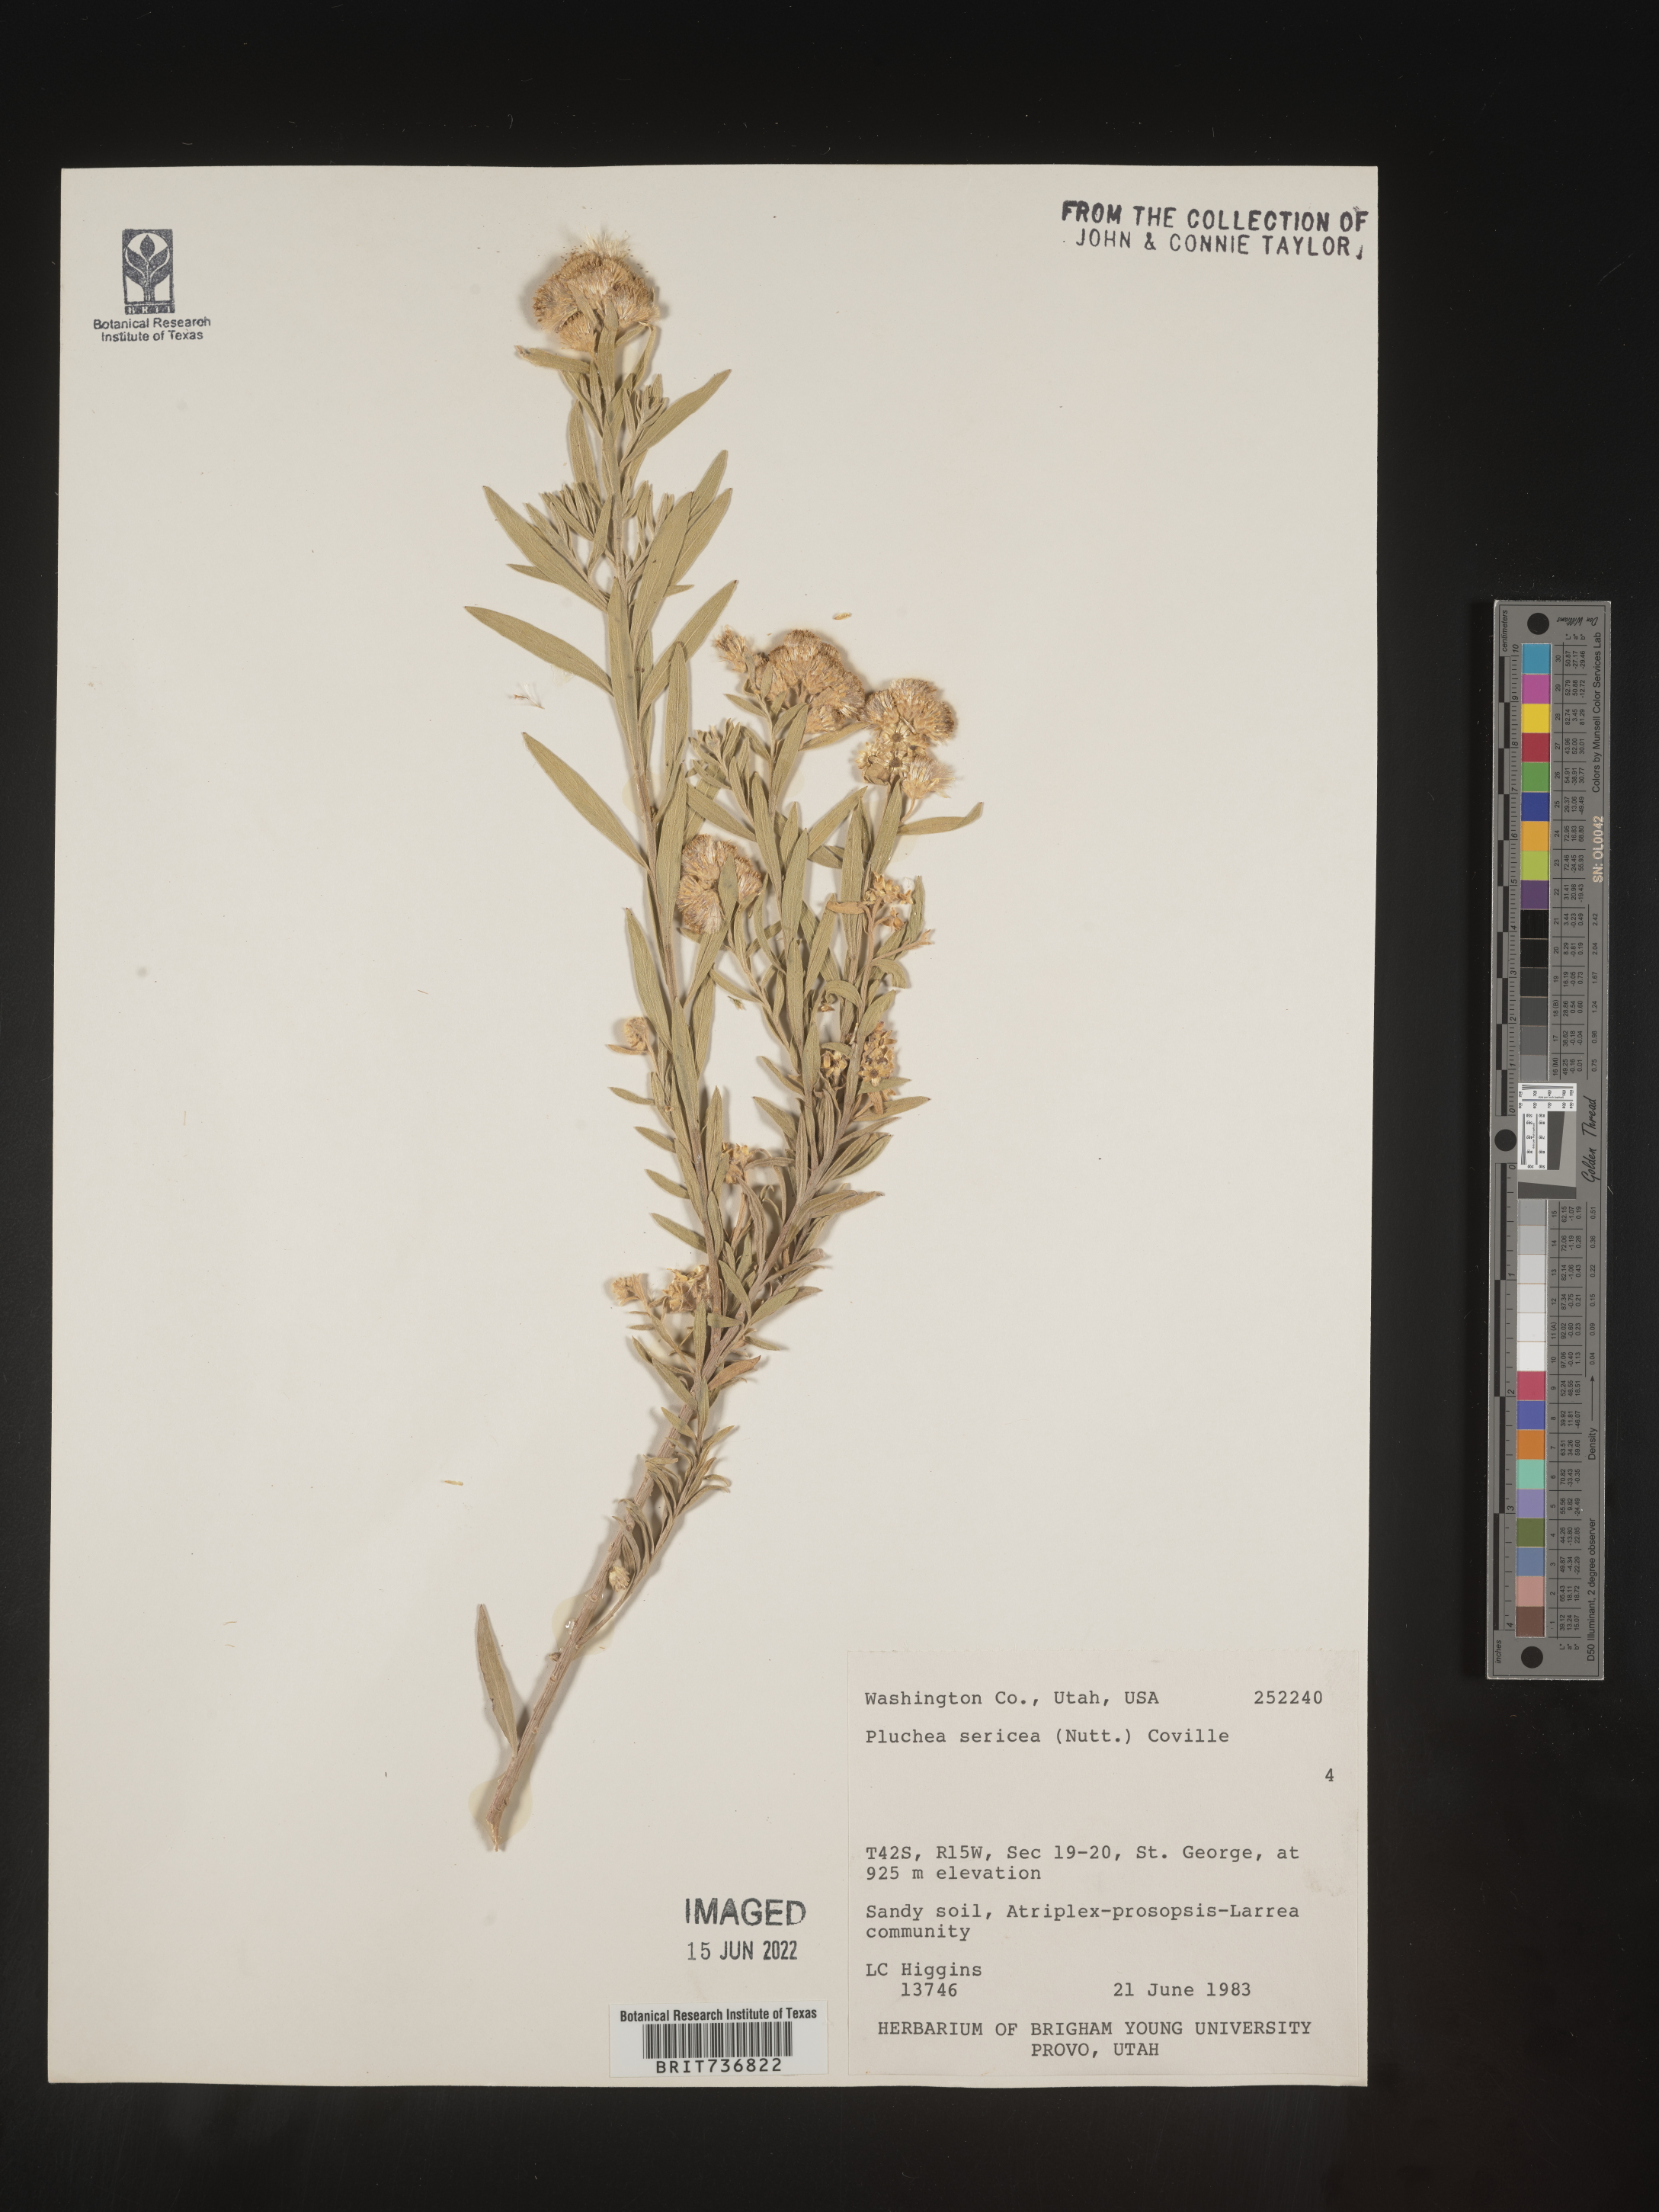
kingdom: Plantae
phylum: Tracheophyta
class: Magnoliopsida
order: Asterales
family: Asteraceae
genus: Pluchea
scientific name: Pluchea sericea
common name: Arrow-weed
